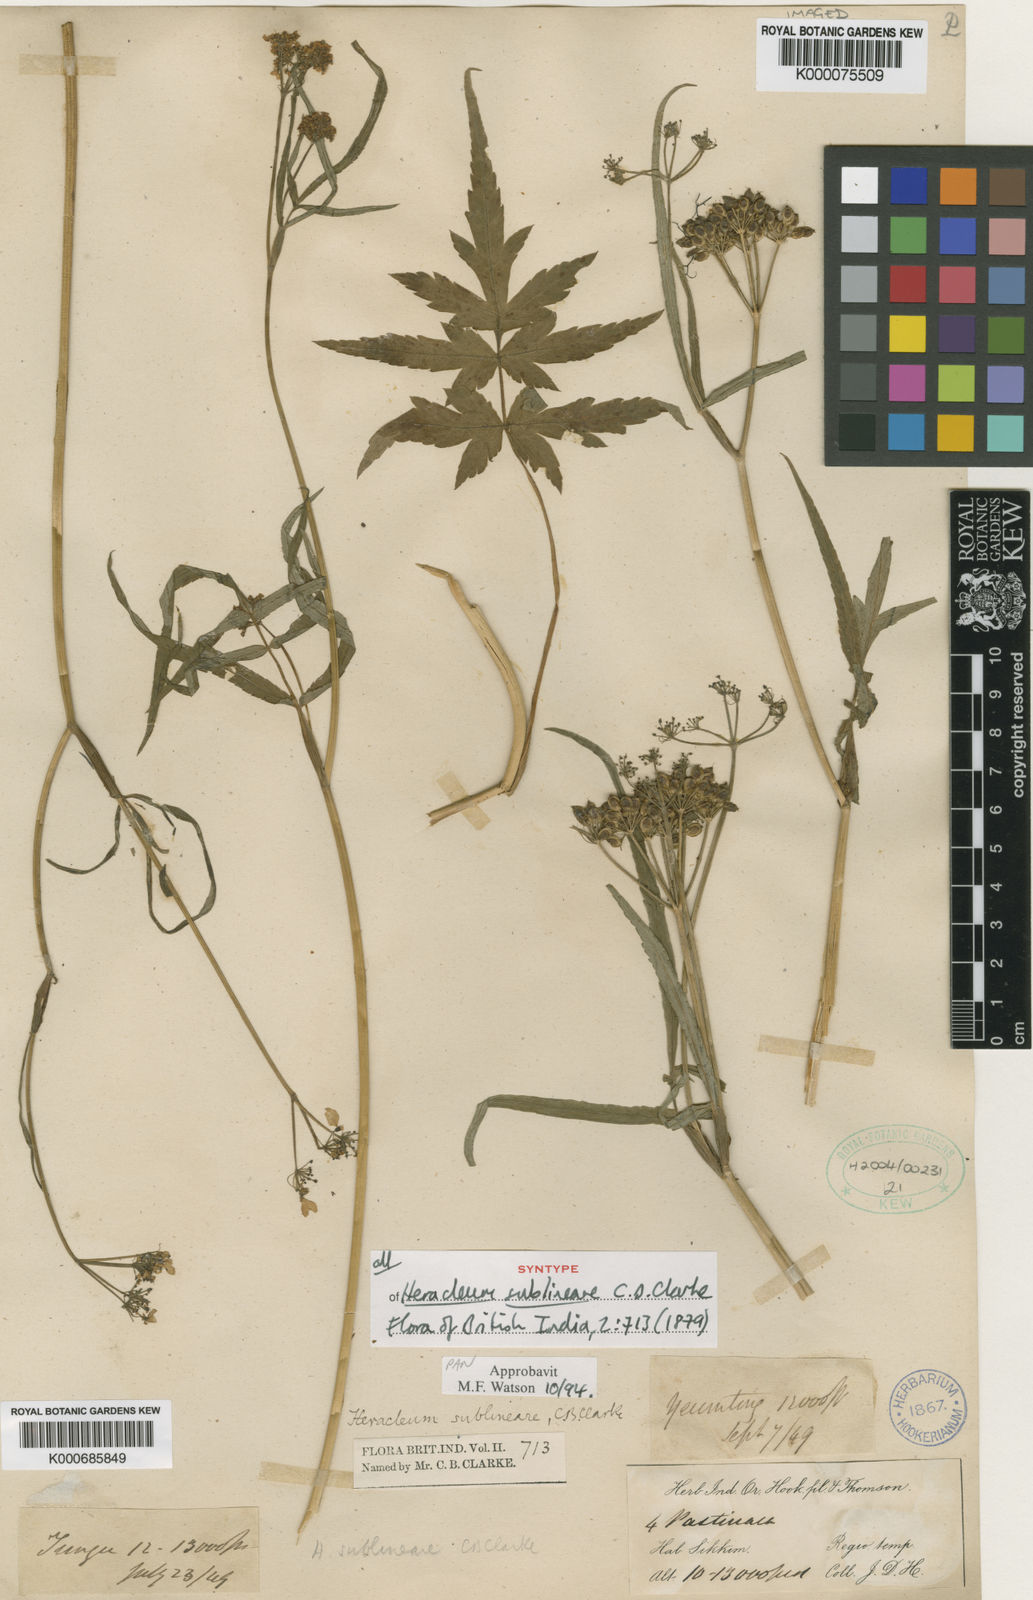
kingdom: Plantae
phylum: Tracheophyta
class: Magnoliopsida
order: Apiales
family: Apiaceae
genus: Tetrataenium
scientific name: Tetrataenium sublineare
